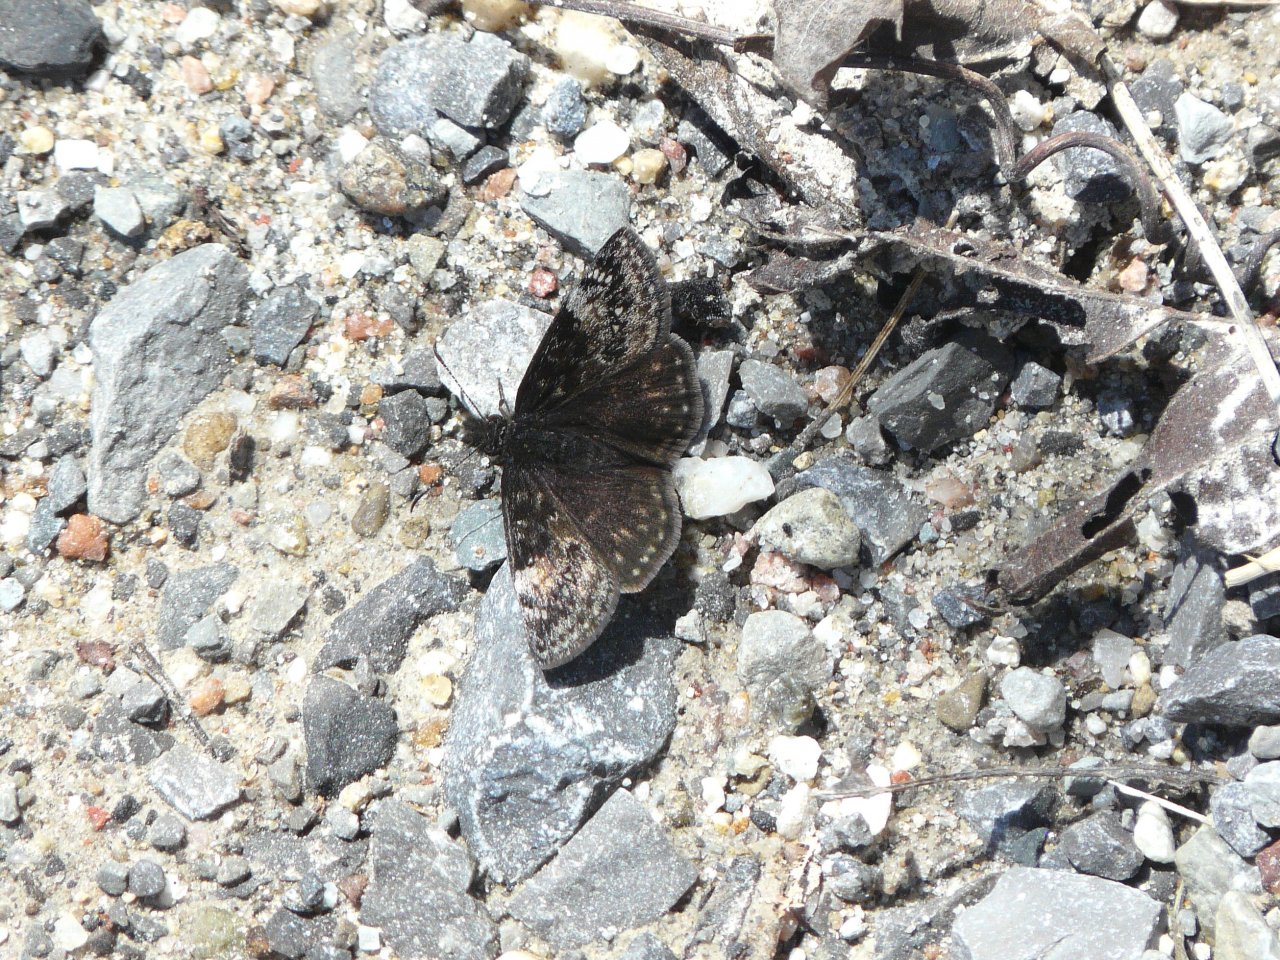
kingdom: Animalia
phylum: Arthropoda
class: Insecta
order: Lepidoptera
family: Hesperiidae
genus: Gesta
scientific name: Gesta
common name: Columbine Duskywing
